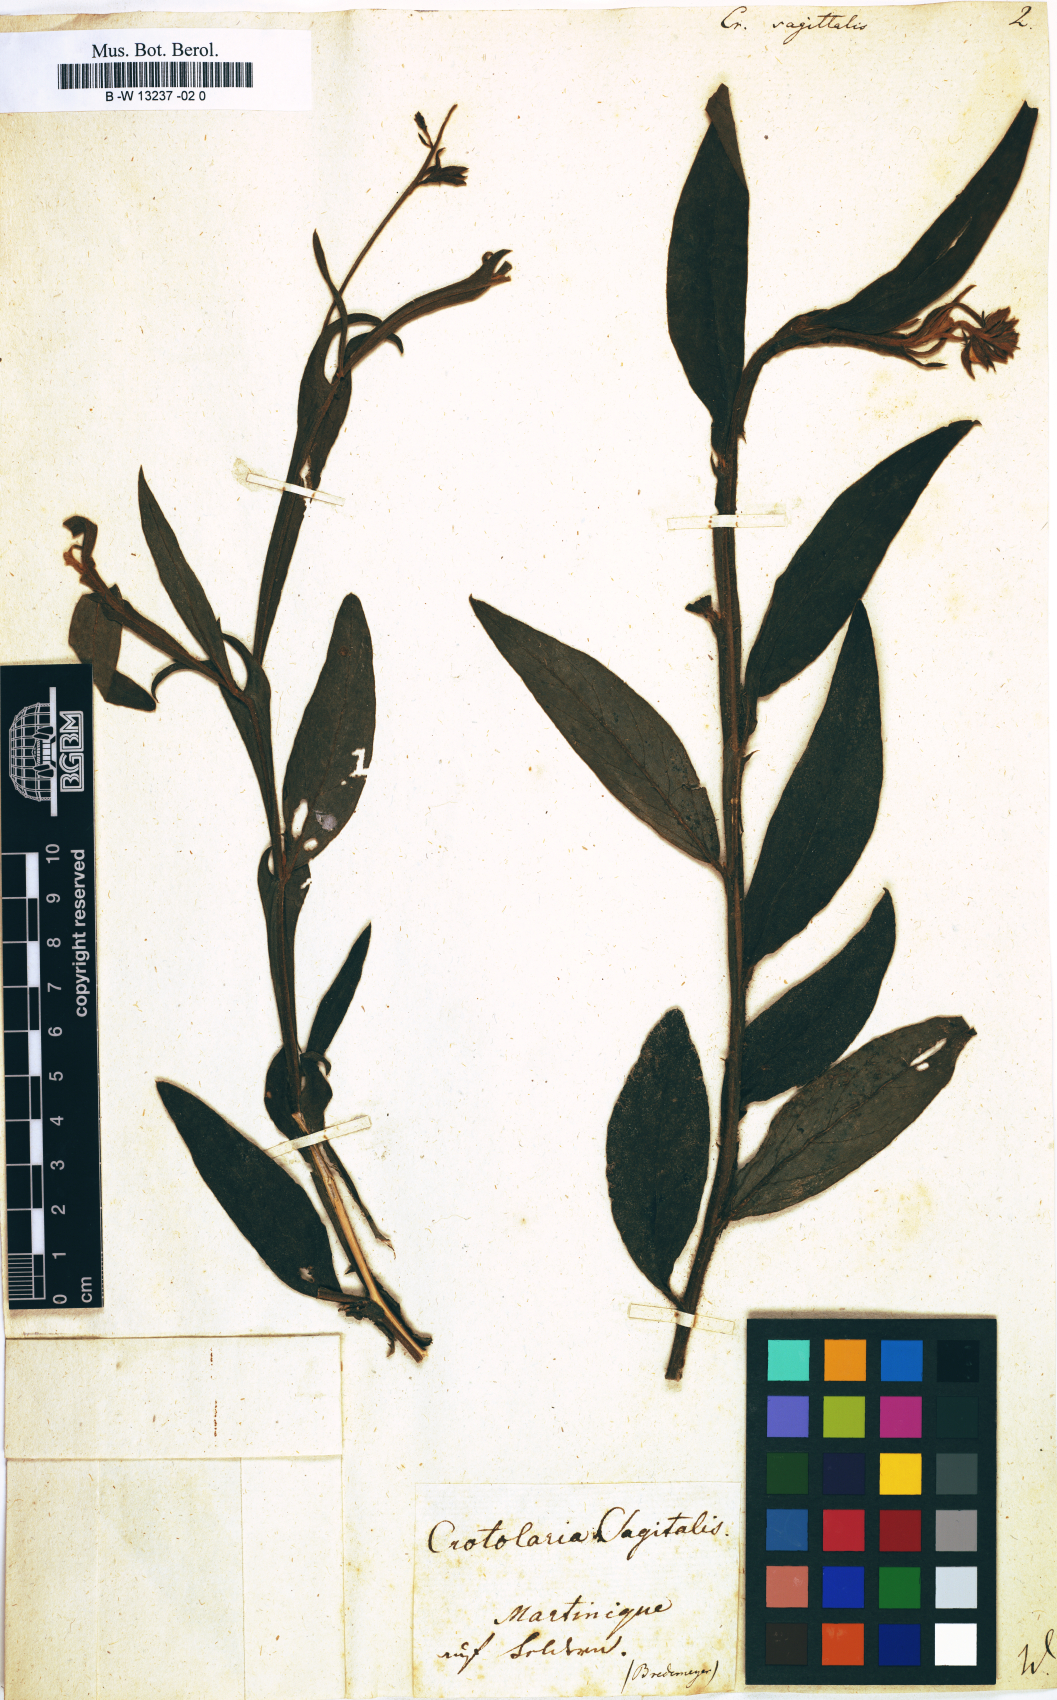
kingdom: Plantae
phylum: Tracheophyta
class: Magnoliopsida
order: Fabales
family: Fabaceae
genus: Crotalaria
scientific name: Crotalaria sagittalis
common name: Arrowhead rattlebox
